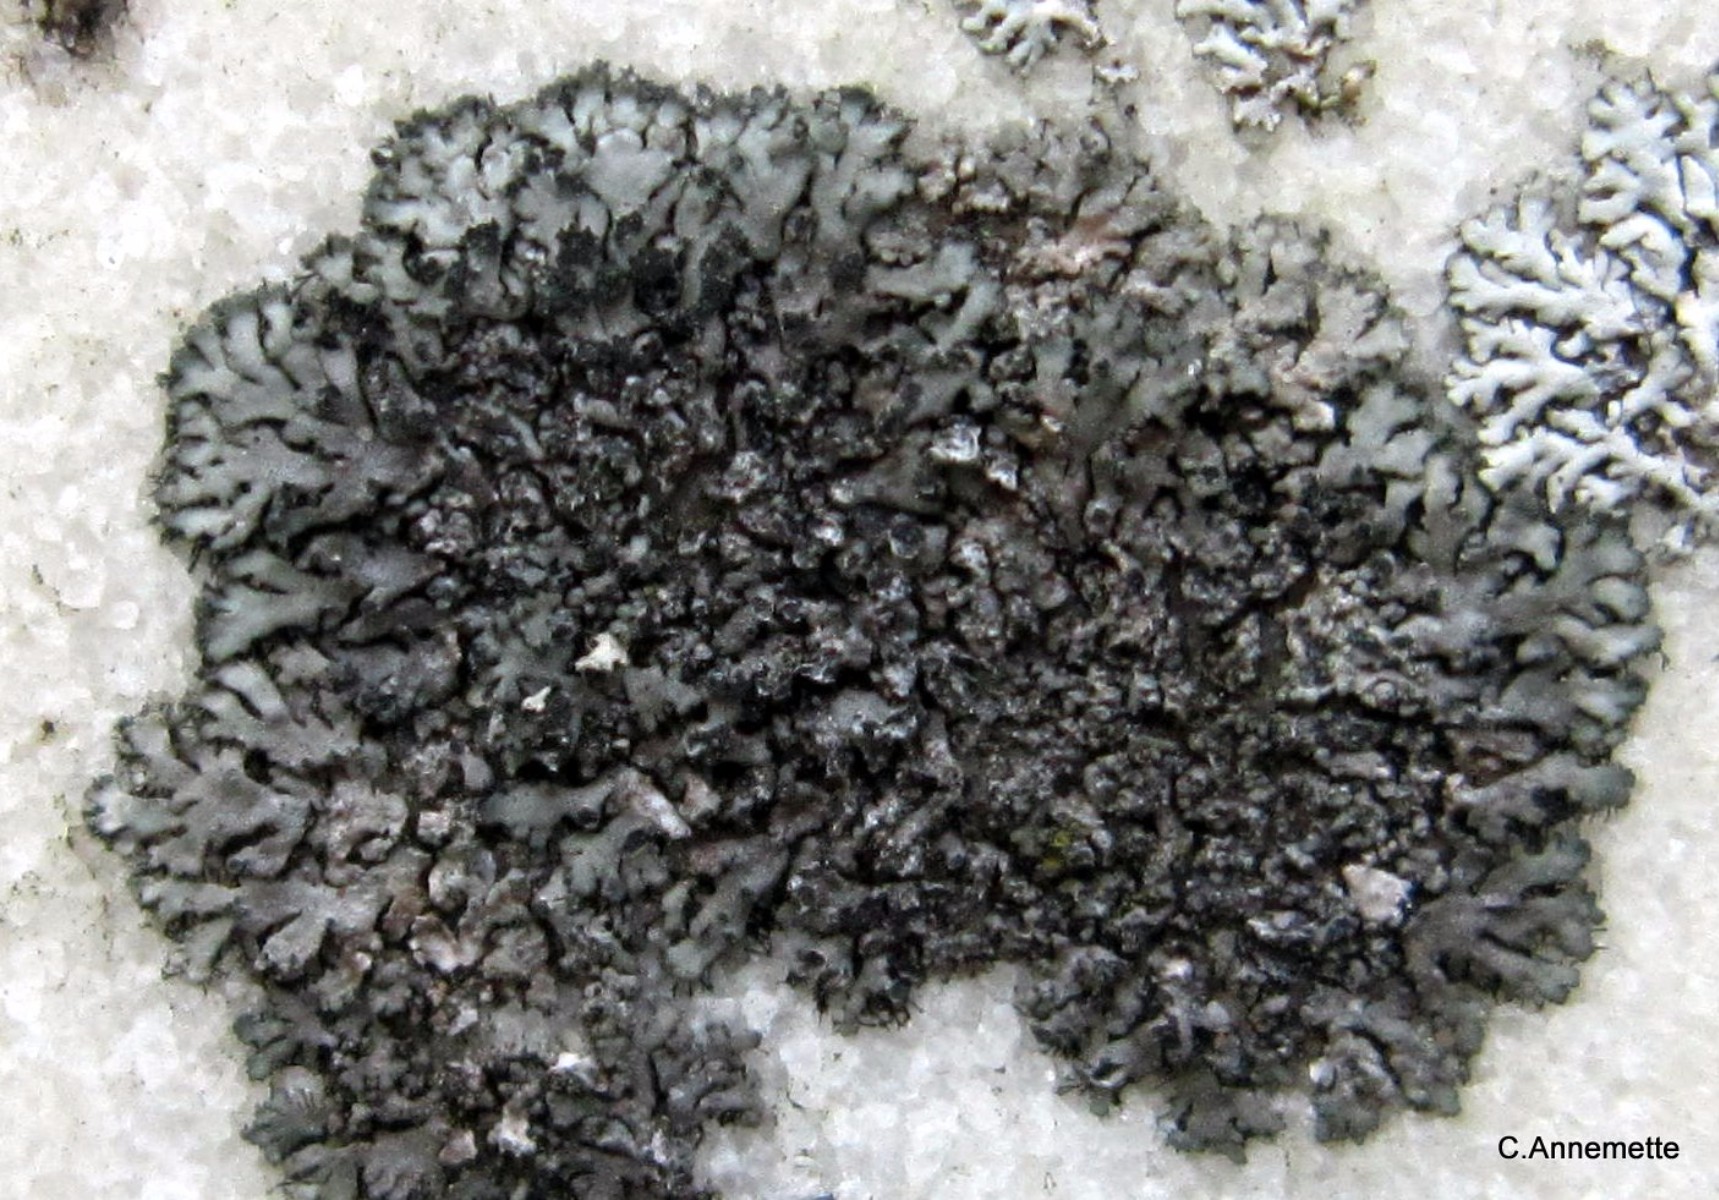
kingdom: Fungi
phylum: Ascomycota
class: Lecanoromycetes
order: Caliciales
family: Physciaceae
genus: Phaeophyscia
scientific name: Phaeophyscia orbicularis
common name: grågrøn rosetlav
